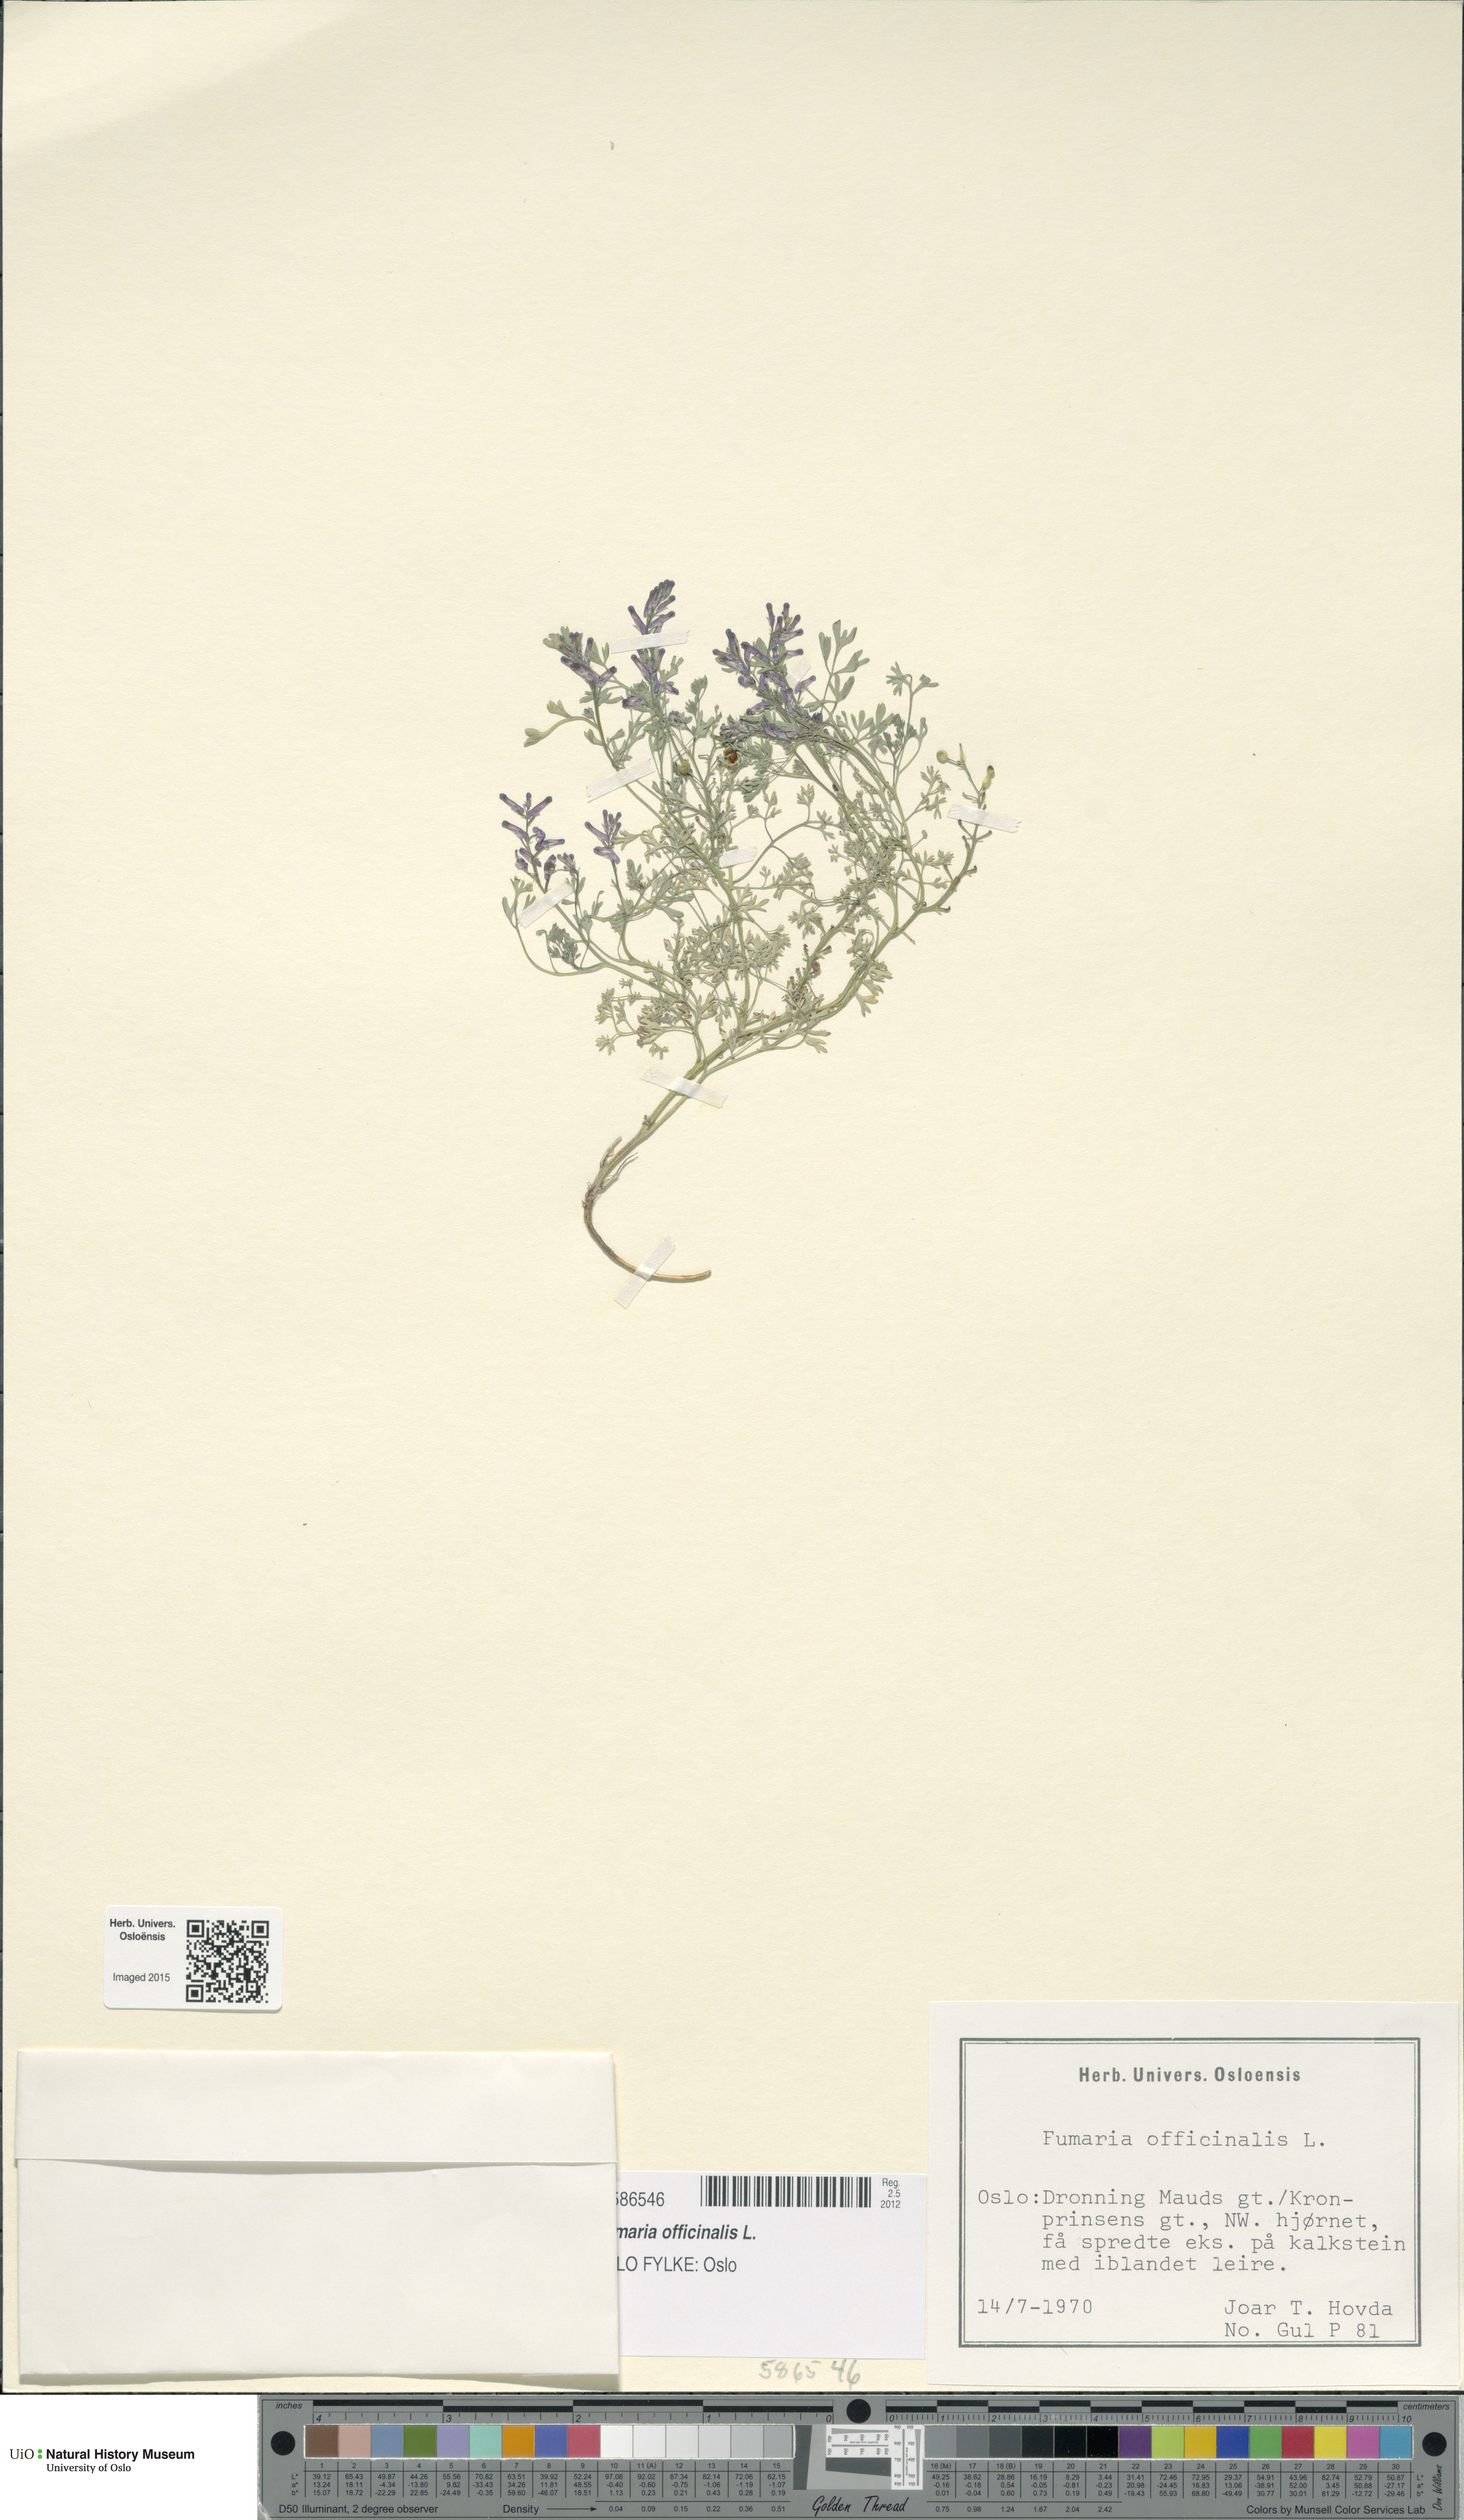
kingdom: Plantae
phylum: Tracheophyta
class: Magnoliopsida
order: Ranunculales
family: Papaveraceae
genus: Fumaria
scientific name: Fumaria officinalis
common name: Common fumitory
